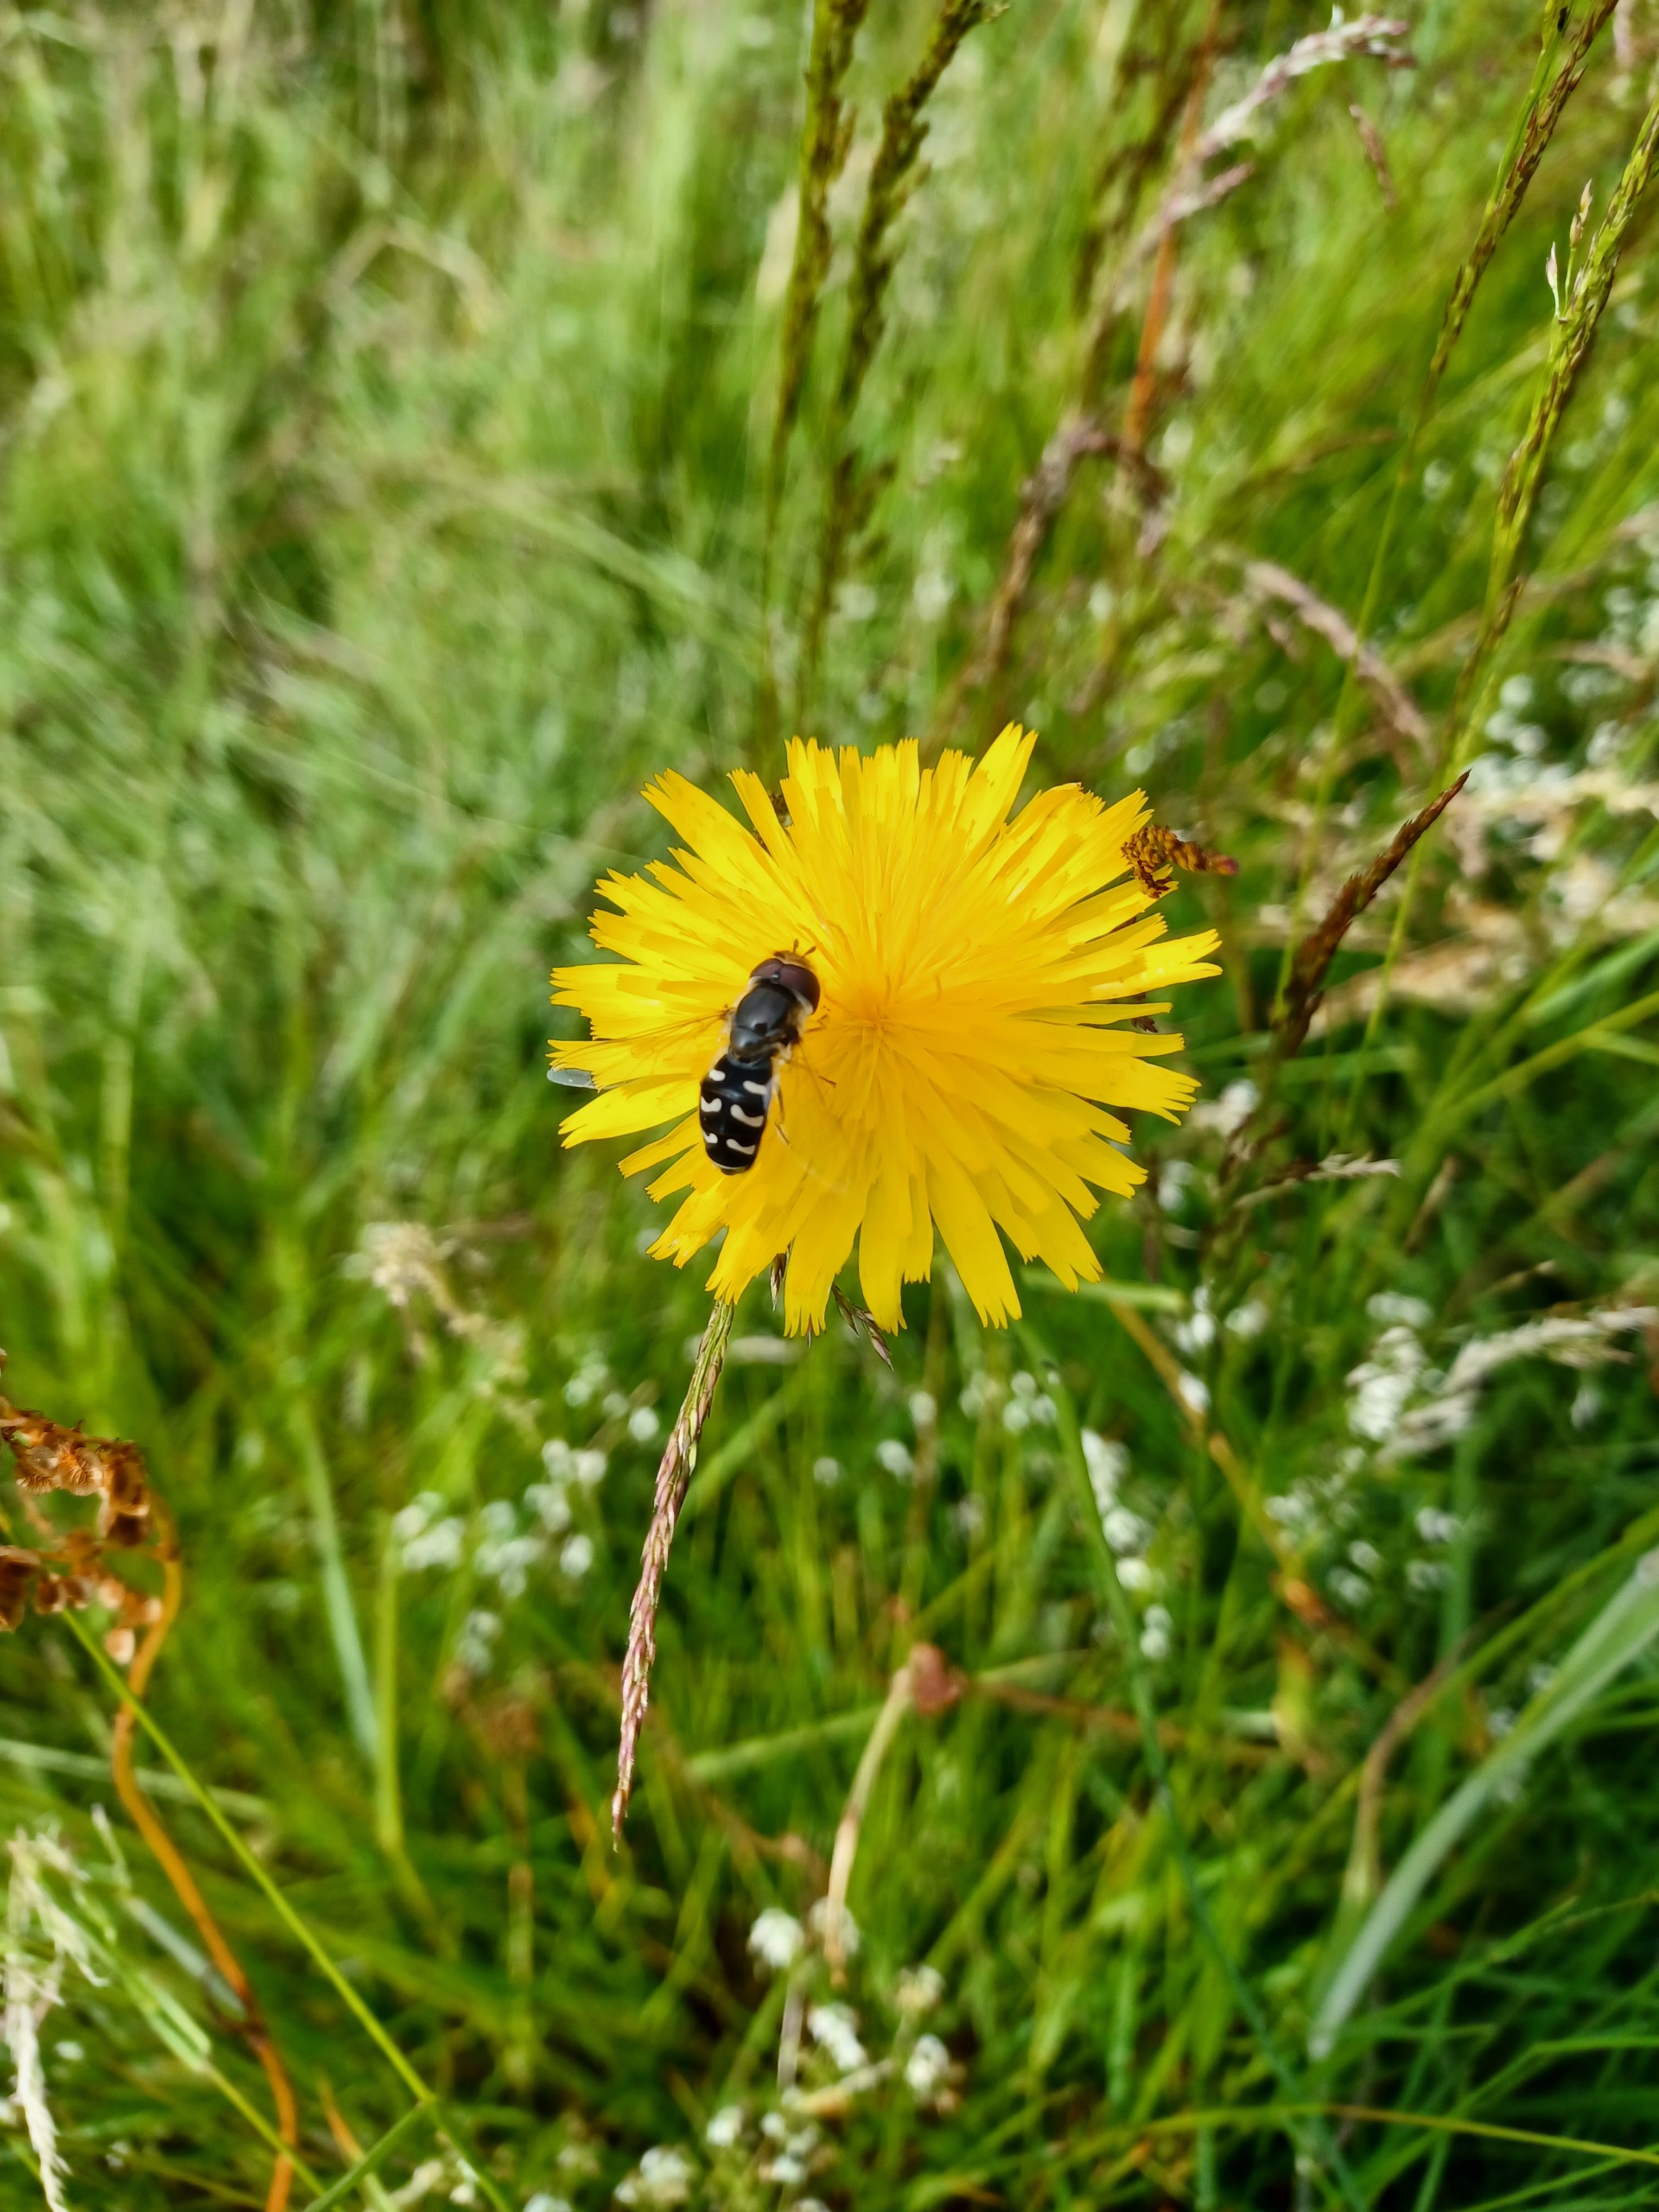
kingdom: Animalia
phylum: Arthropoda
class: Insecta
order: Diptera
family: Syrphidae
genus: Scaeva
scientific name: Scaeva pyrastri
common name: Hvidplettet agersvirreflue
